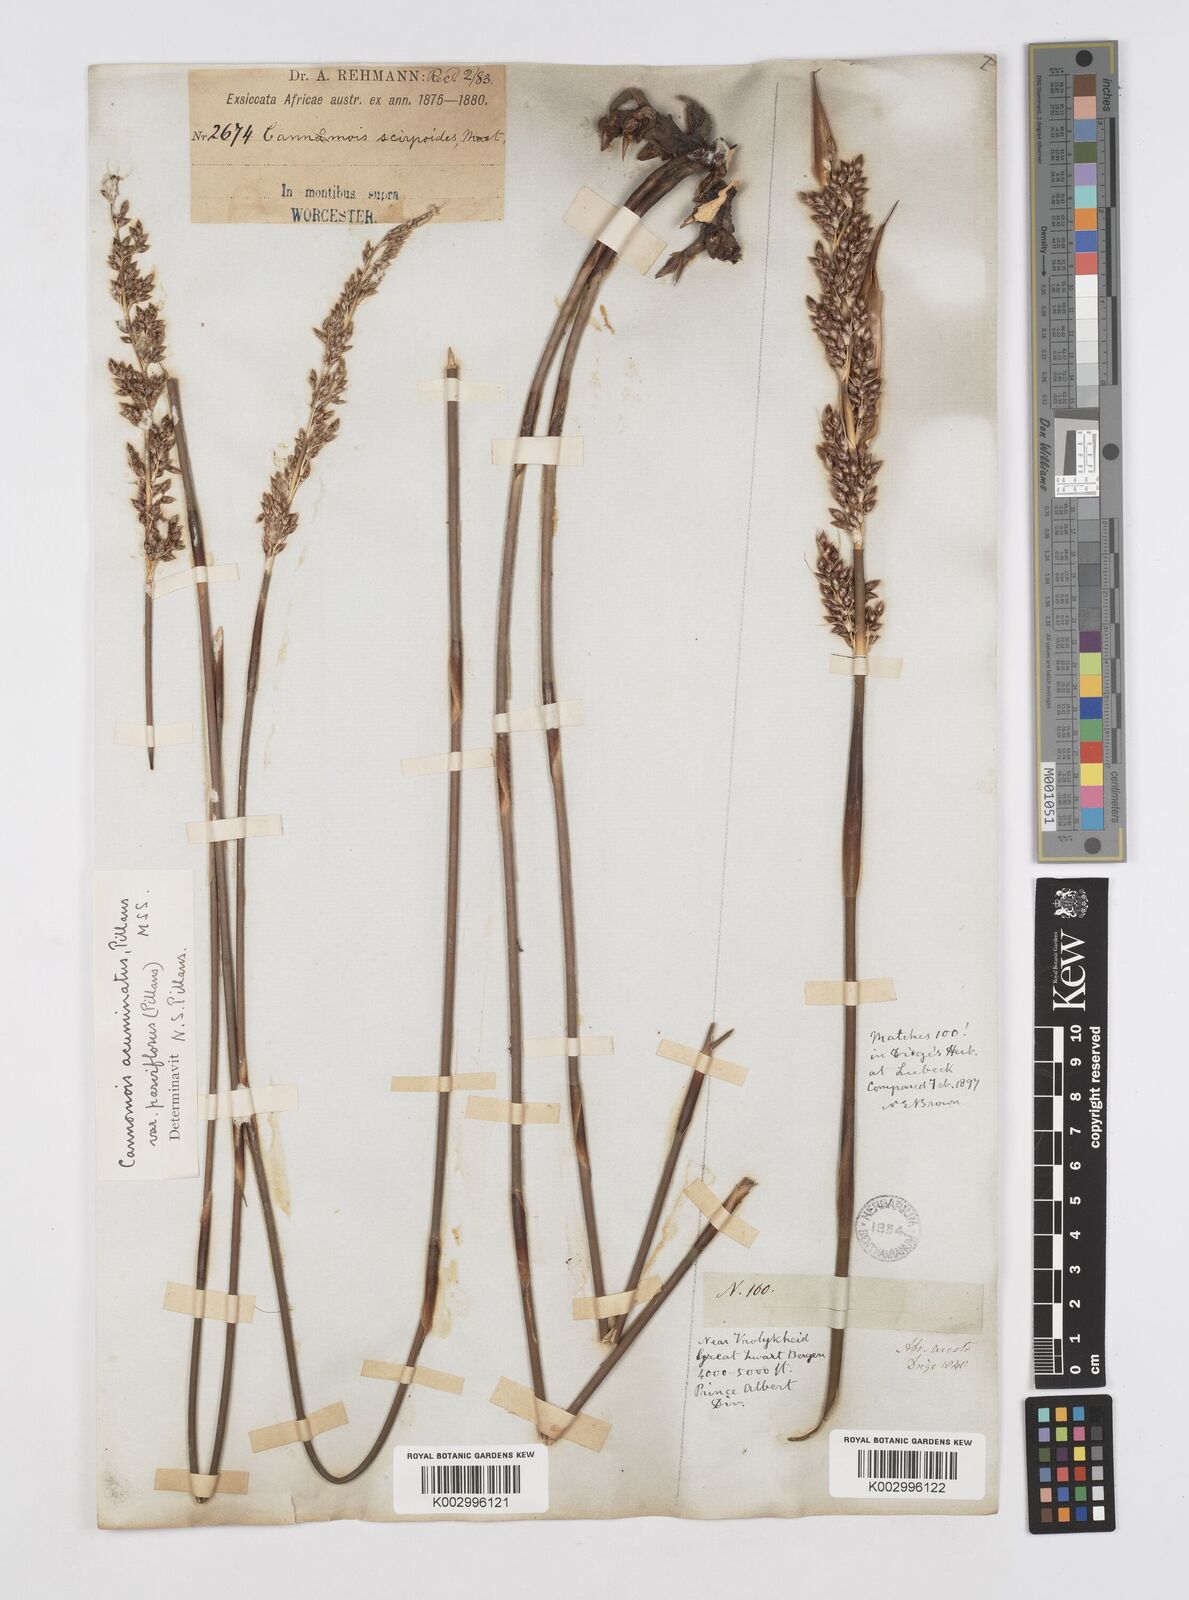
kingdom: Plantae
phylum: Tracheophyta
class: Liliopsida
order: Poales
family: Restionaceae
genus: Cannomois
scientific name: Cannomois scirpoides
